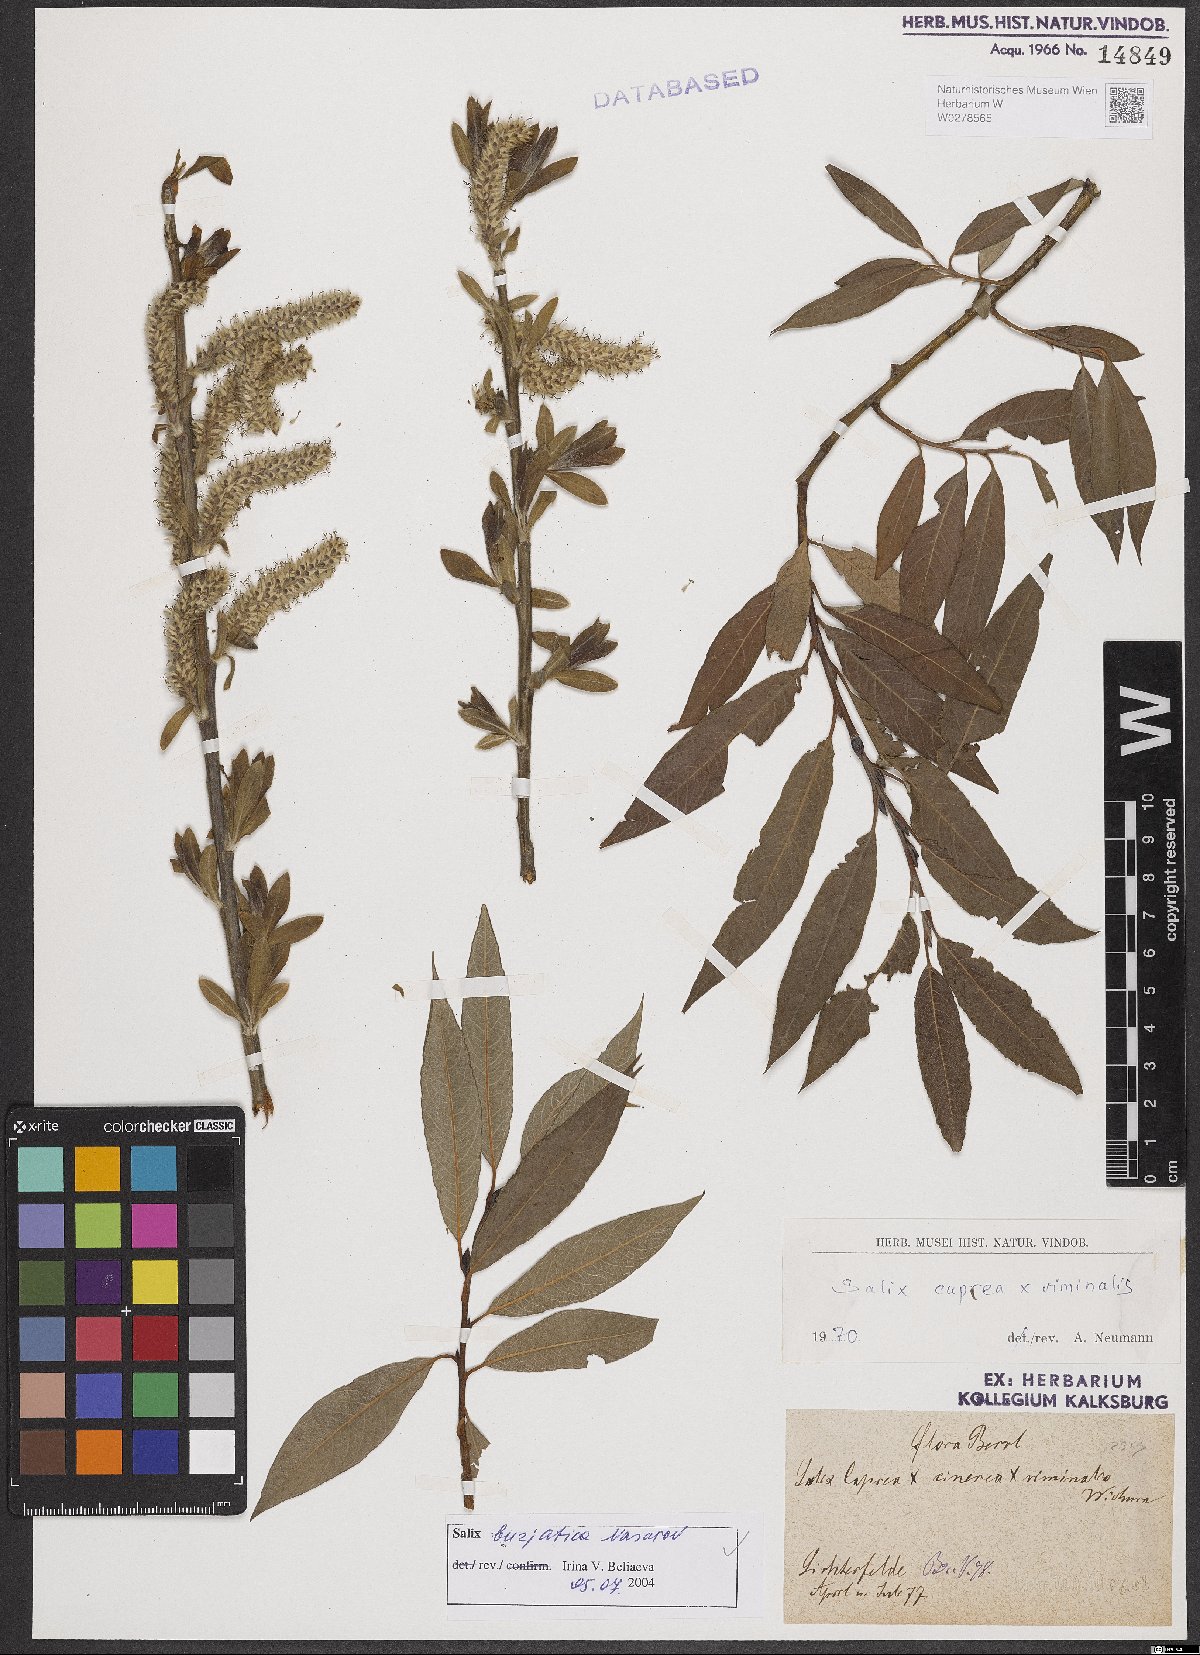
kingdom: Plantae
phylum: Tracheophyta
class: Magnoliopsida
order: Malpighiales
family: Salicaceae
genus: Salix
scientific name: Salix gmelinii
